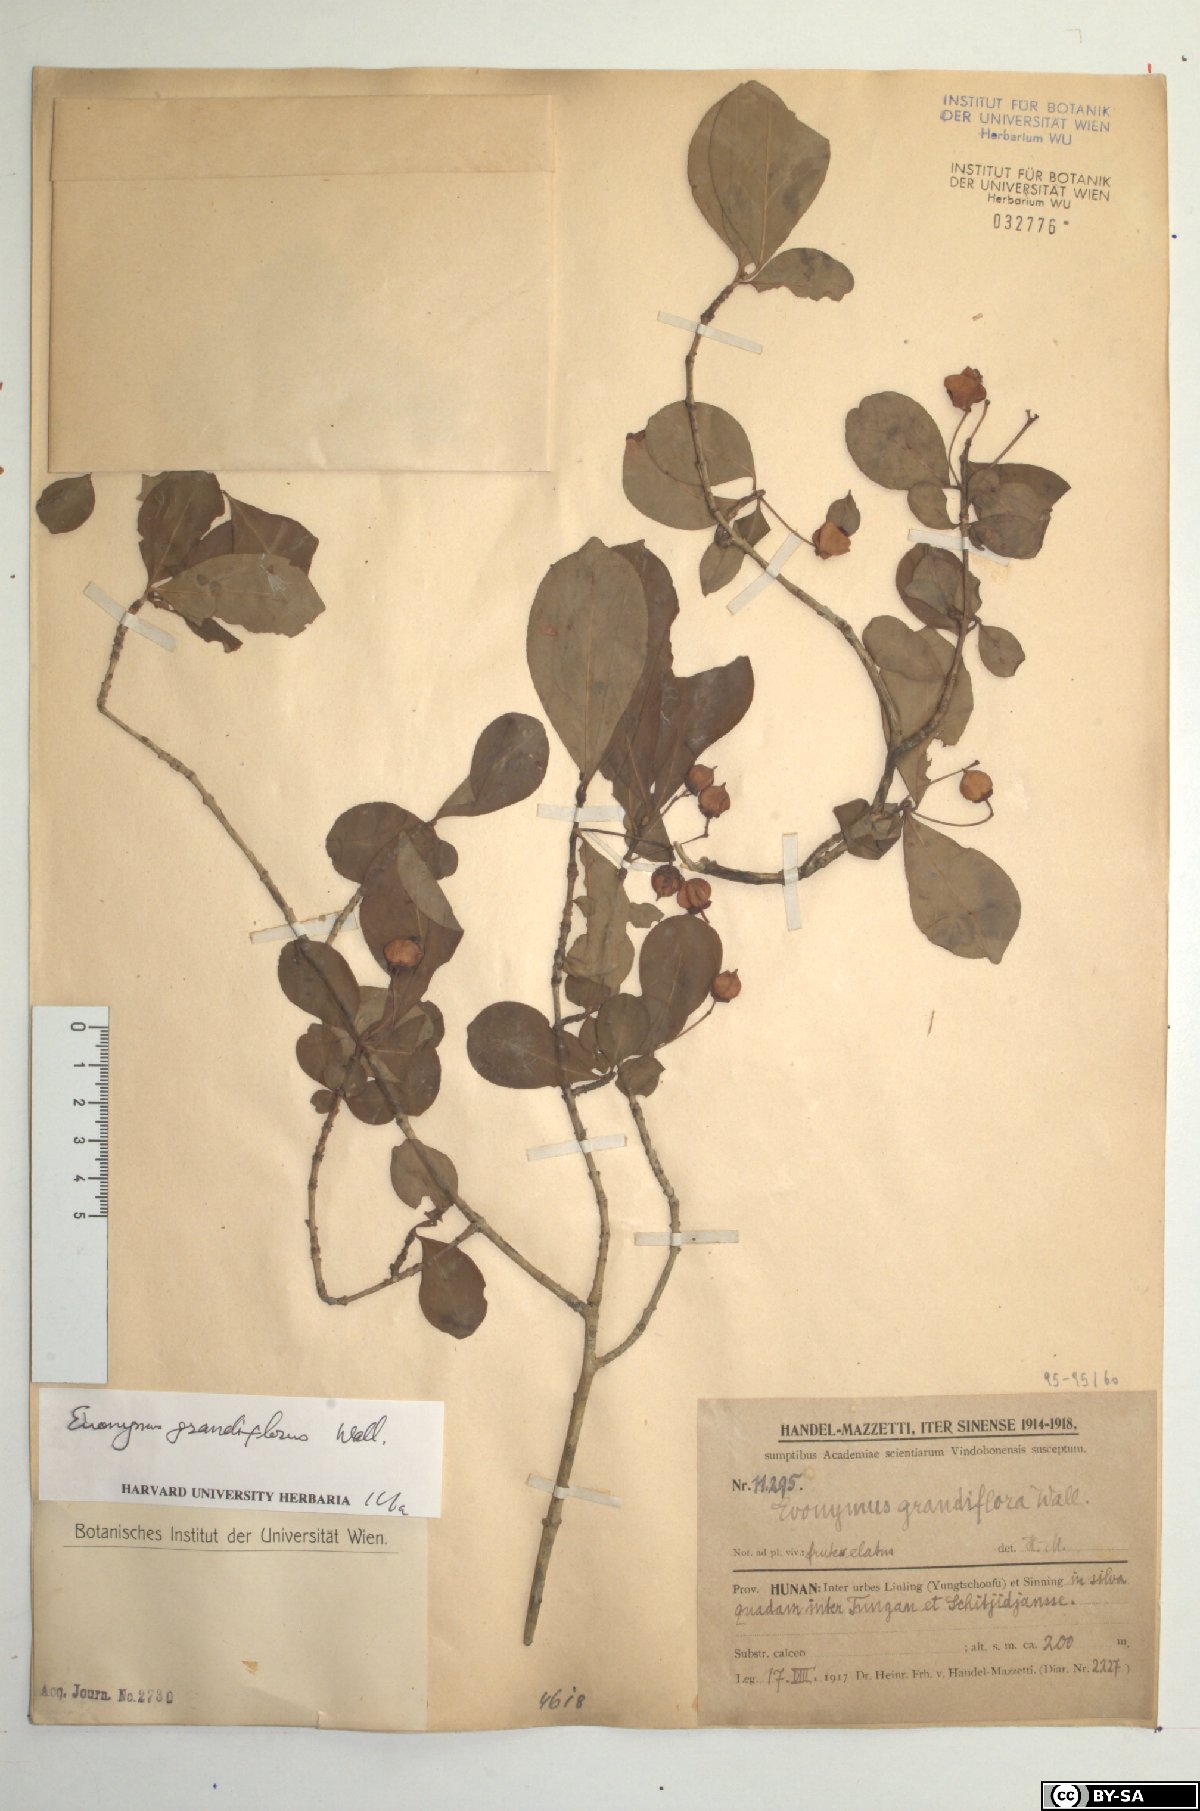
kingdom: Plantae
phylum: Tracheophyta
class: Magnoliopsida
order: Celastrales
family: Celastraceae
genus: Euonymus
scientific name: Euonymus grandiflorus
